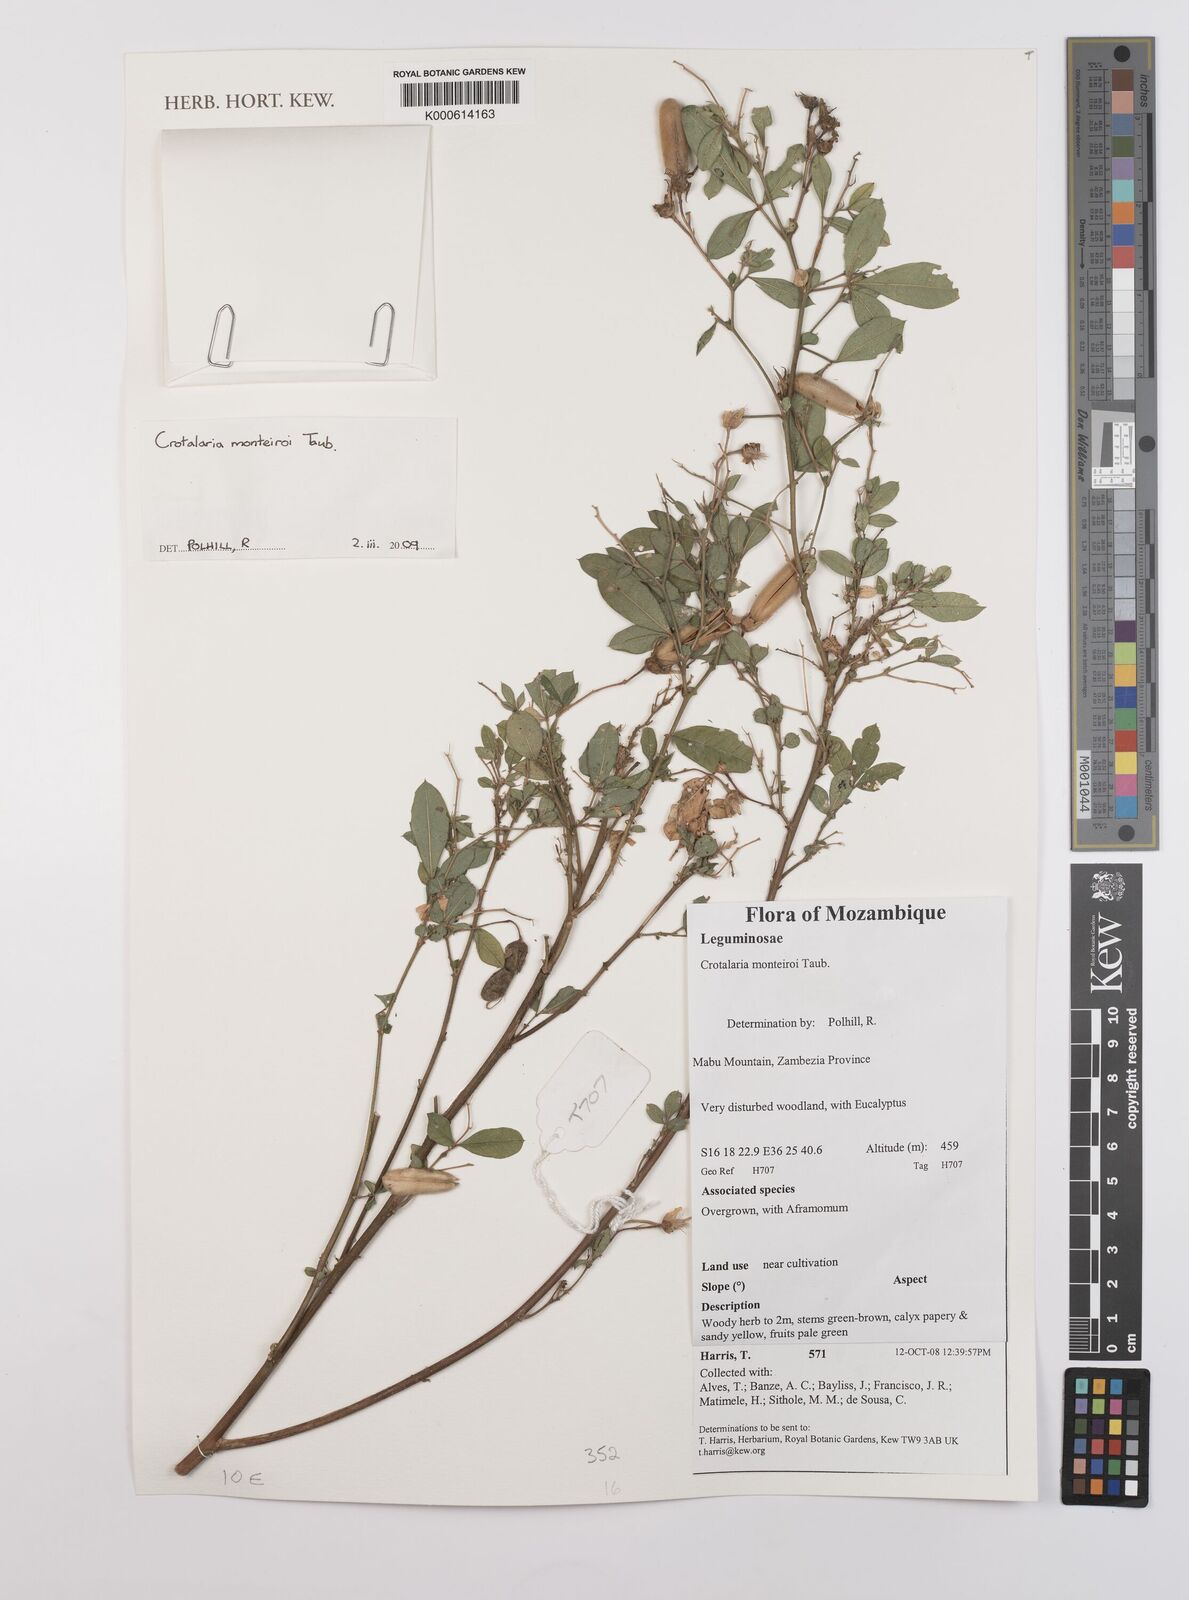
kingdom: Plantae
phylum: Tracheophyta
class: Magnoliopsida
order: Fabales
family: Fabaceae
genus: Crotalaria
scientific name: Crotalaria
